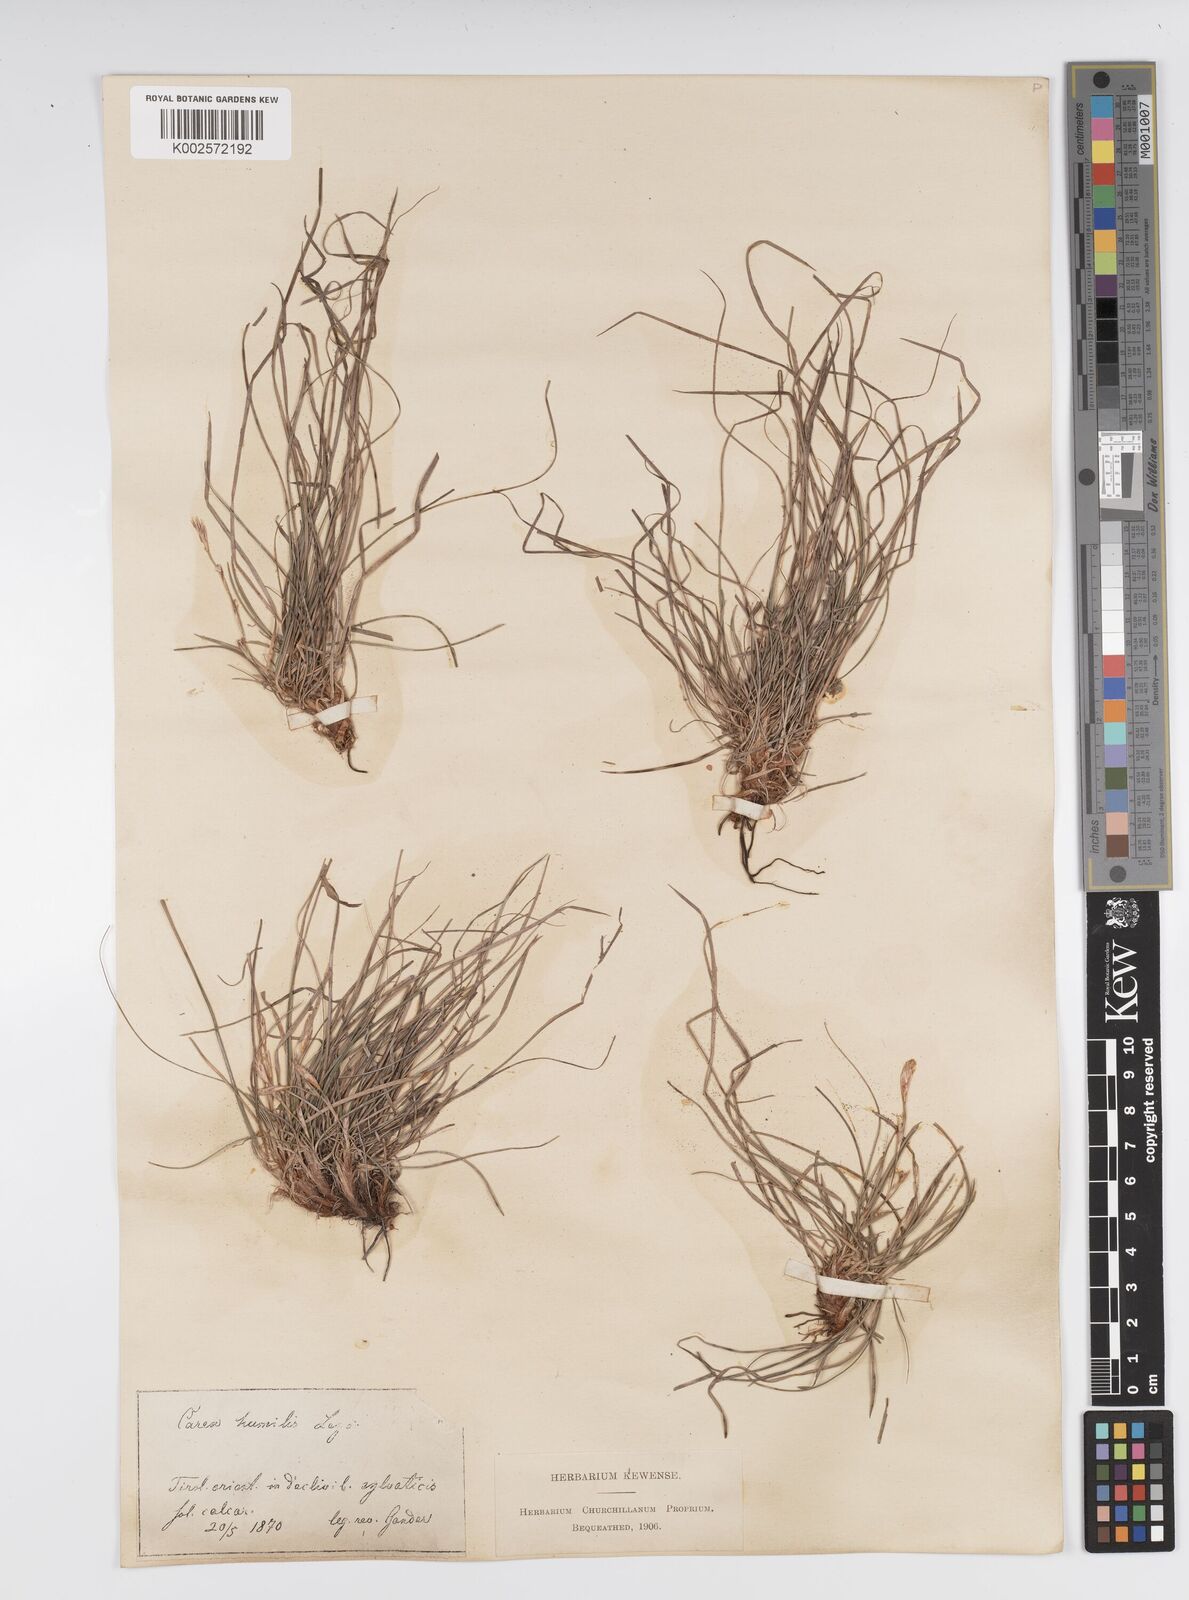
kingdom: Plantae
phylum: Tracheophyta
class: Liliopsida
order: Poales
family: Cyperaceae
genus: Carex
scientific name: Carex humilis
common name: Dwarf sedge
